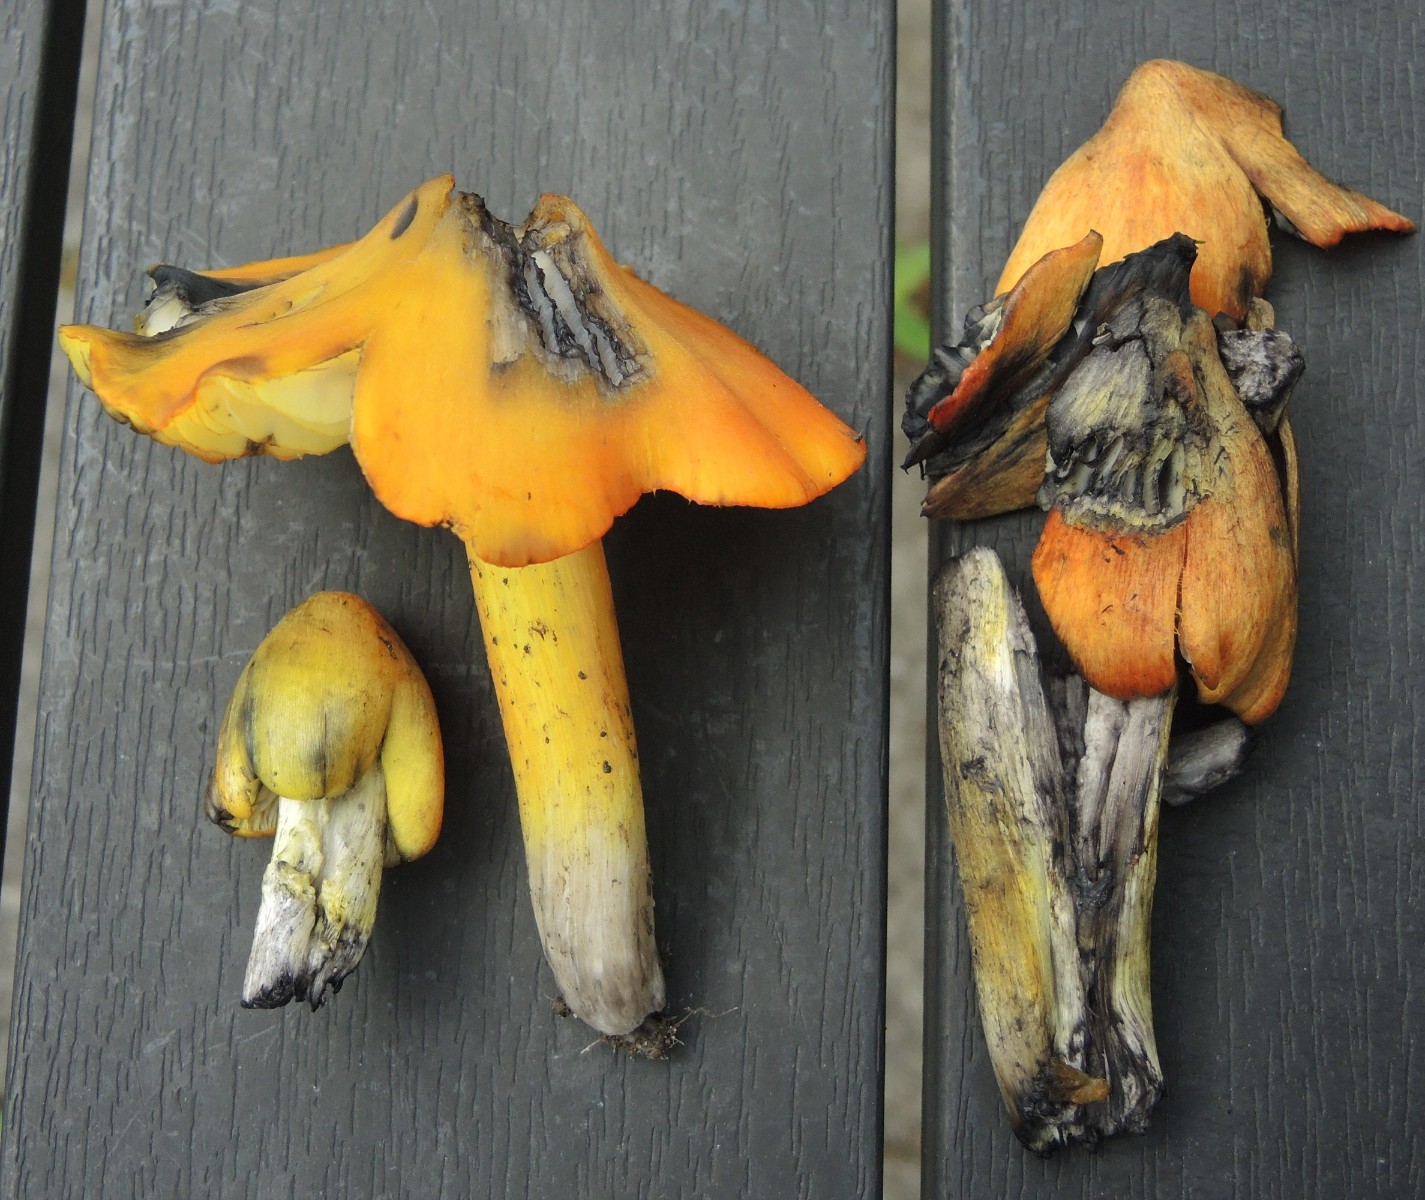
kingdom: Fungi
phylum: Basidiomycota
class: Agaricomycetes
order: Agaricales
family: Hygrophoraceae
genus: Hygrocybe
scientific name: Hygrocybe conica
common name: Blackening wax-cap
